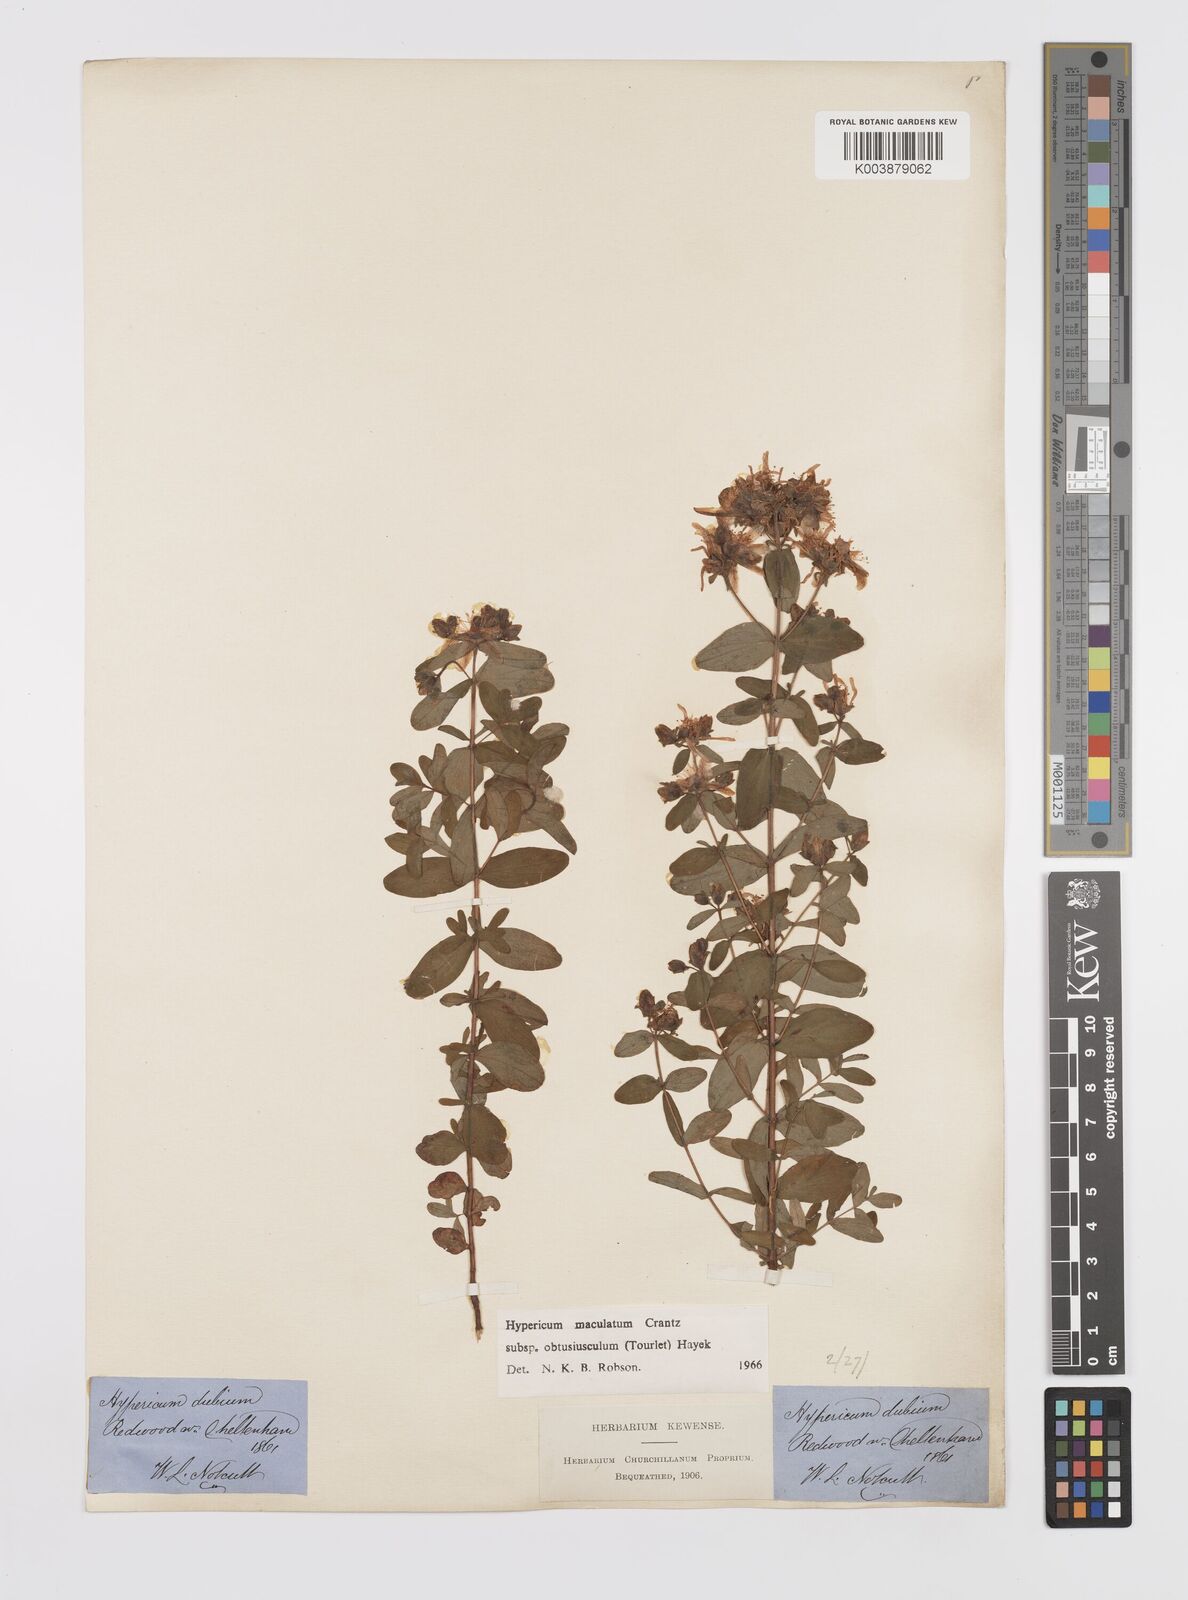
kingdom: Plantae
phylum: Tracheophyta
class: Magnoliopsida
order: Malpighiales
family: Hypericaceae
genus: Hypericum
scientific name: Hypericum dubium
